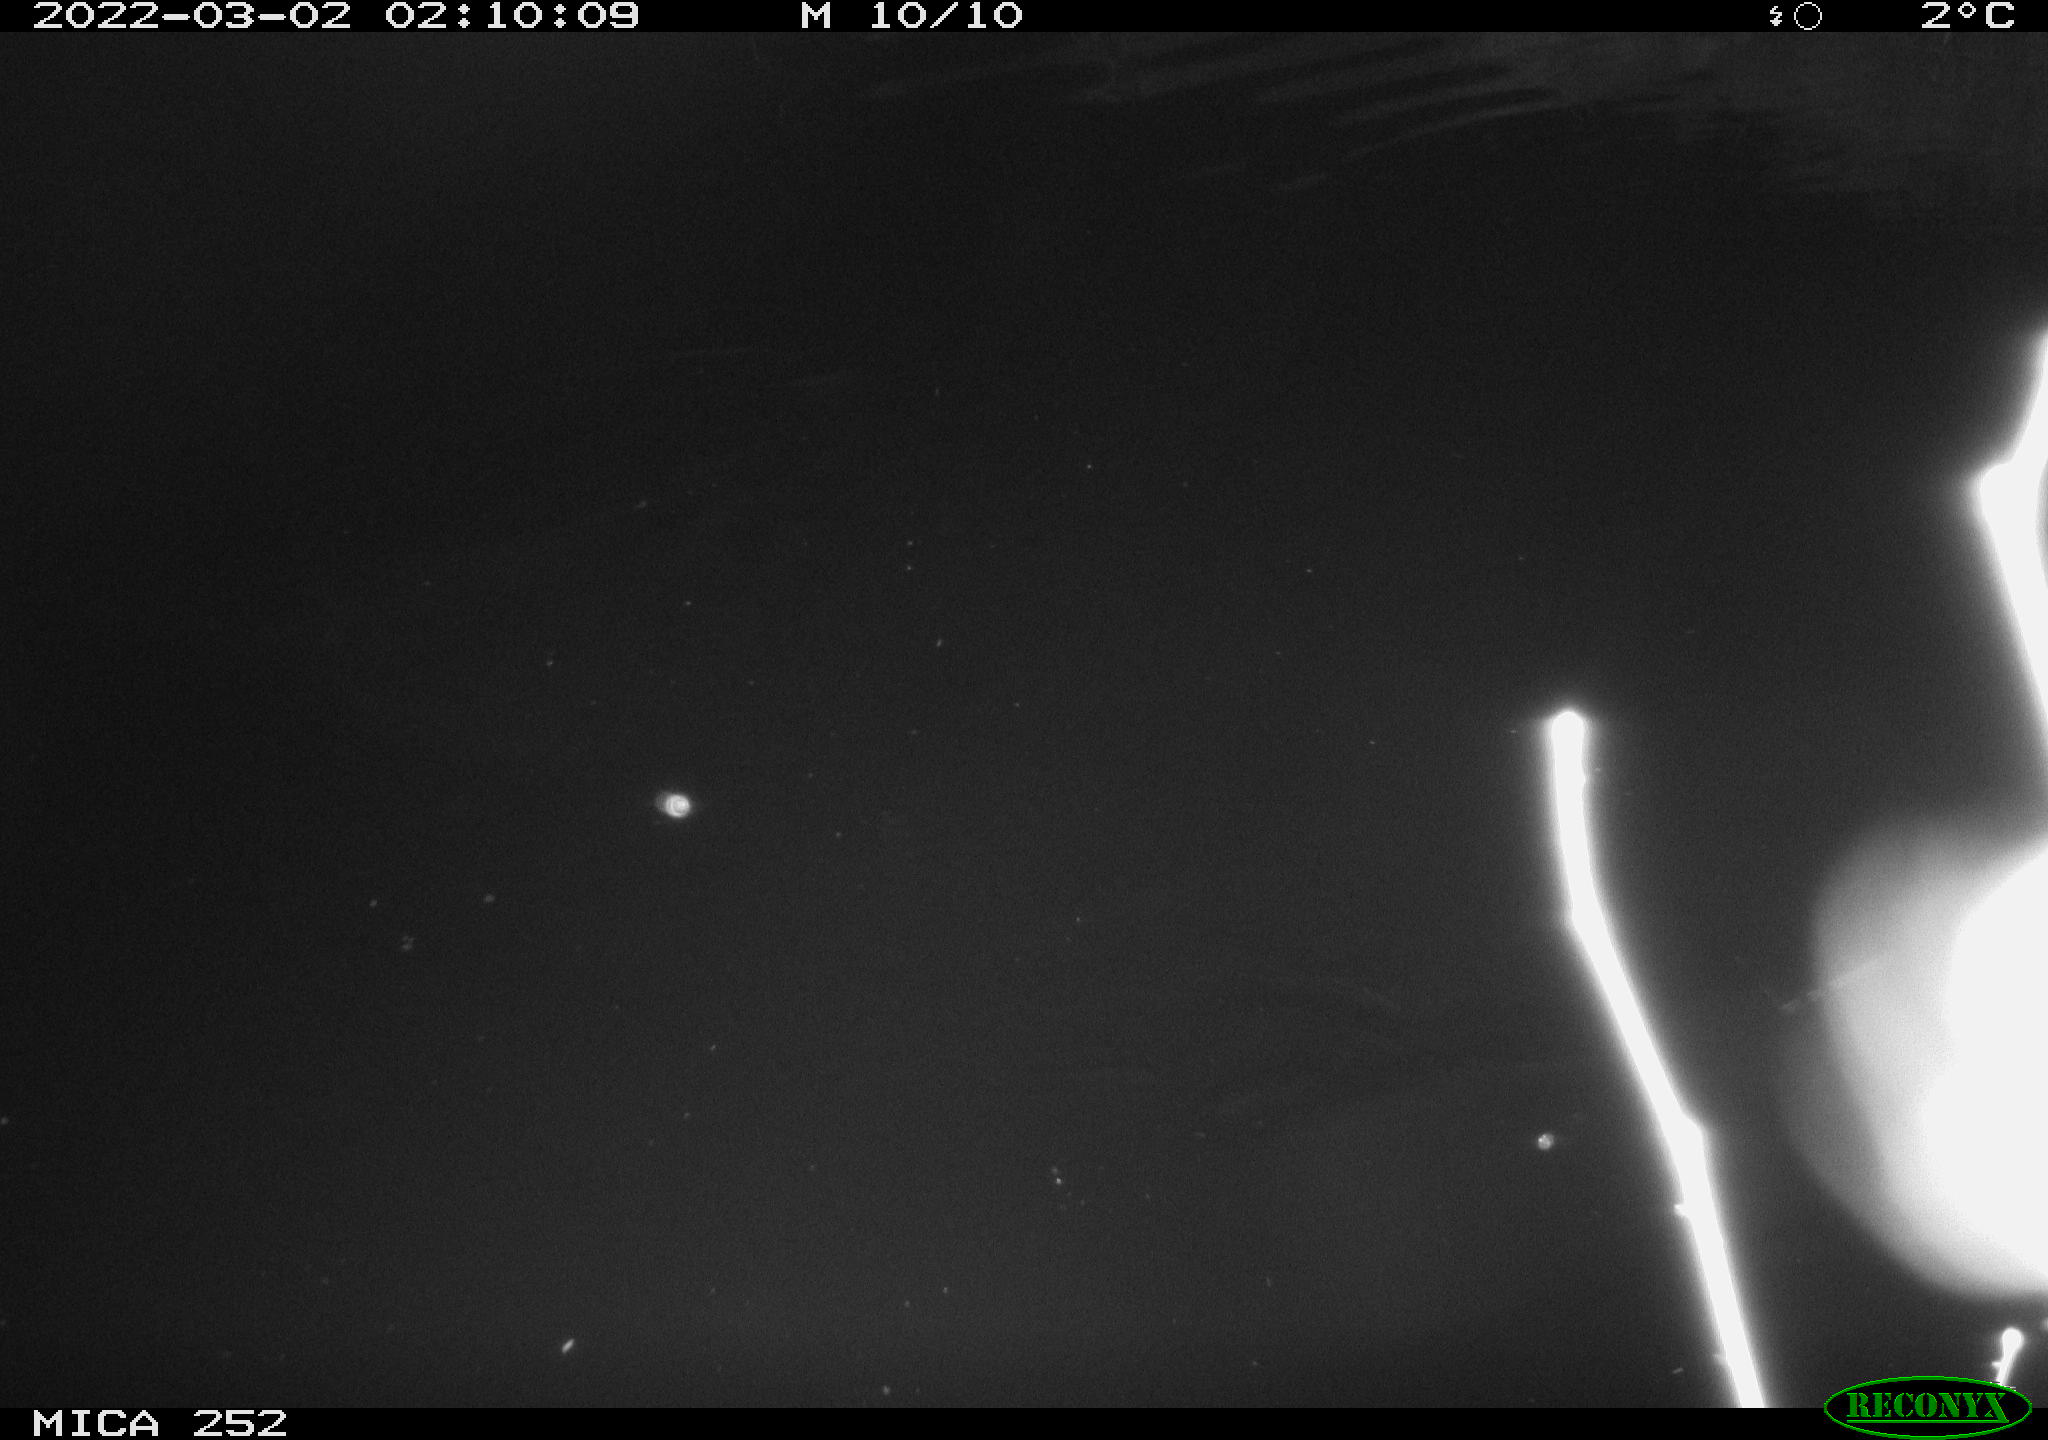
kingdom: Animalia
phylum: Chordata
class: Mammalia
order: Rodentia
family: Castoridae
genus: Castor
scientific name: Castor fiber
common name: Eurasian beaver
